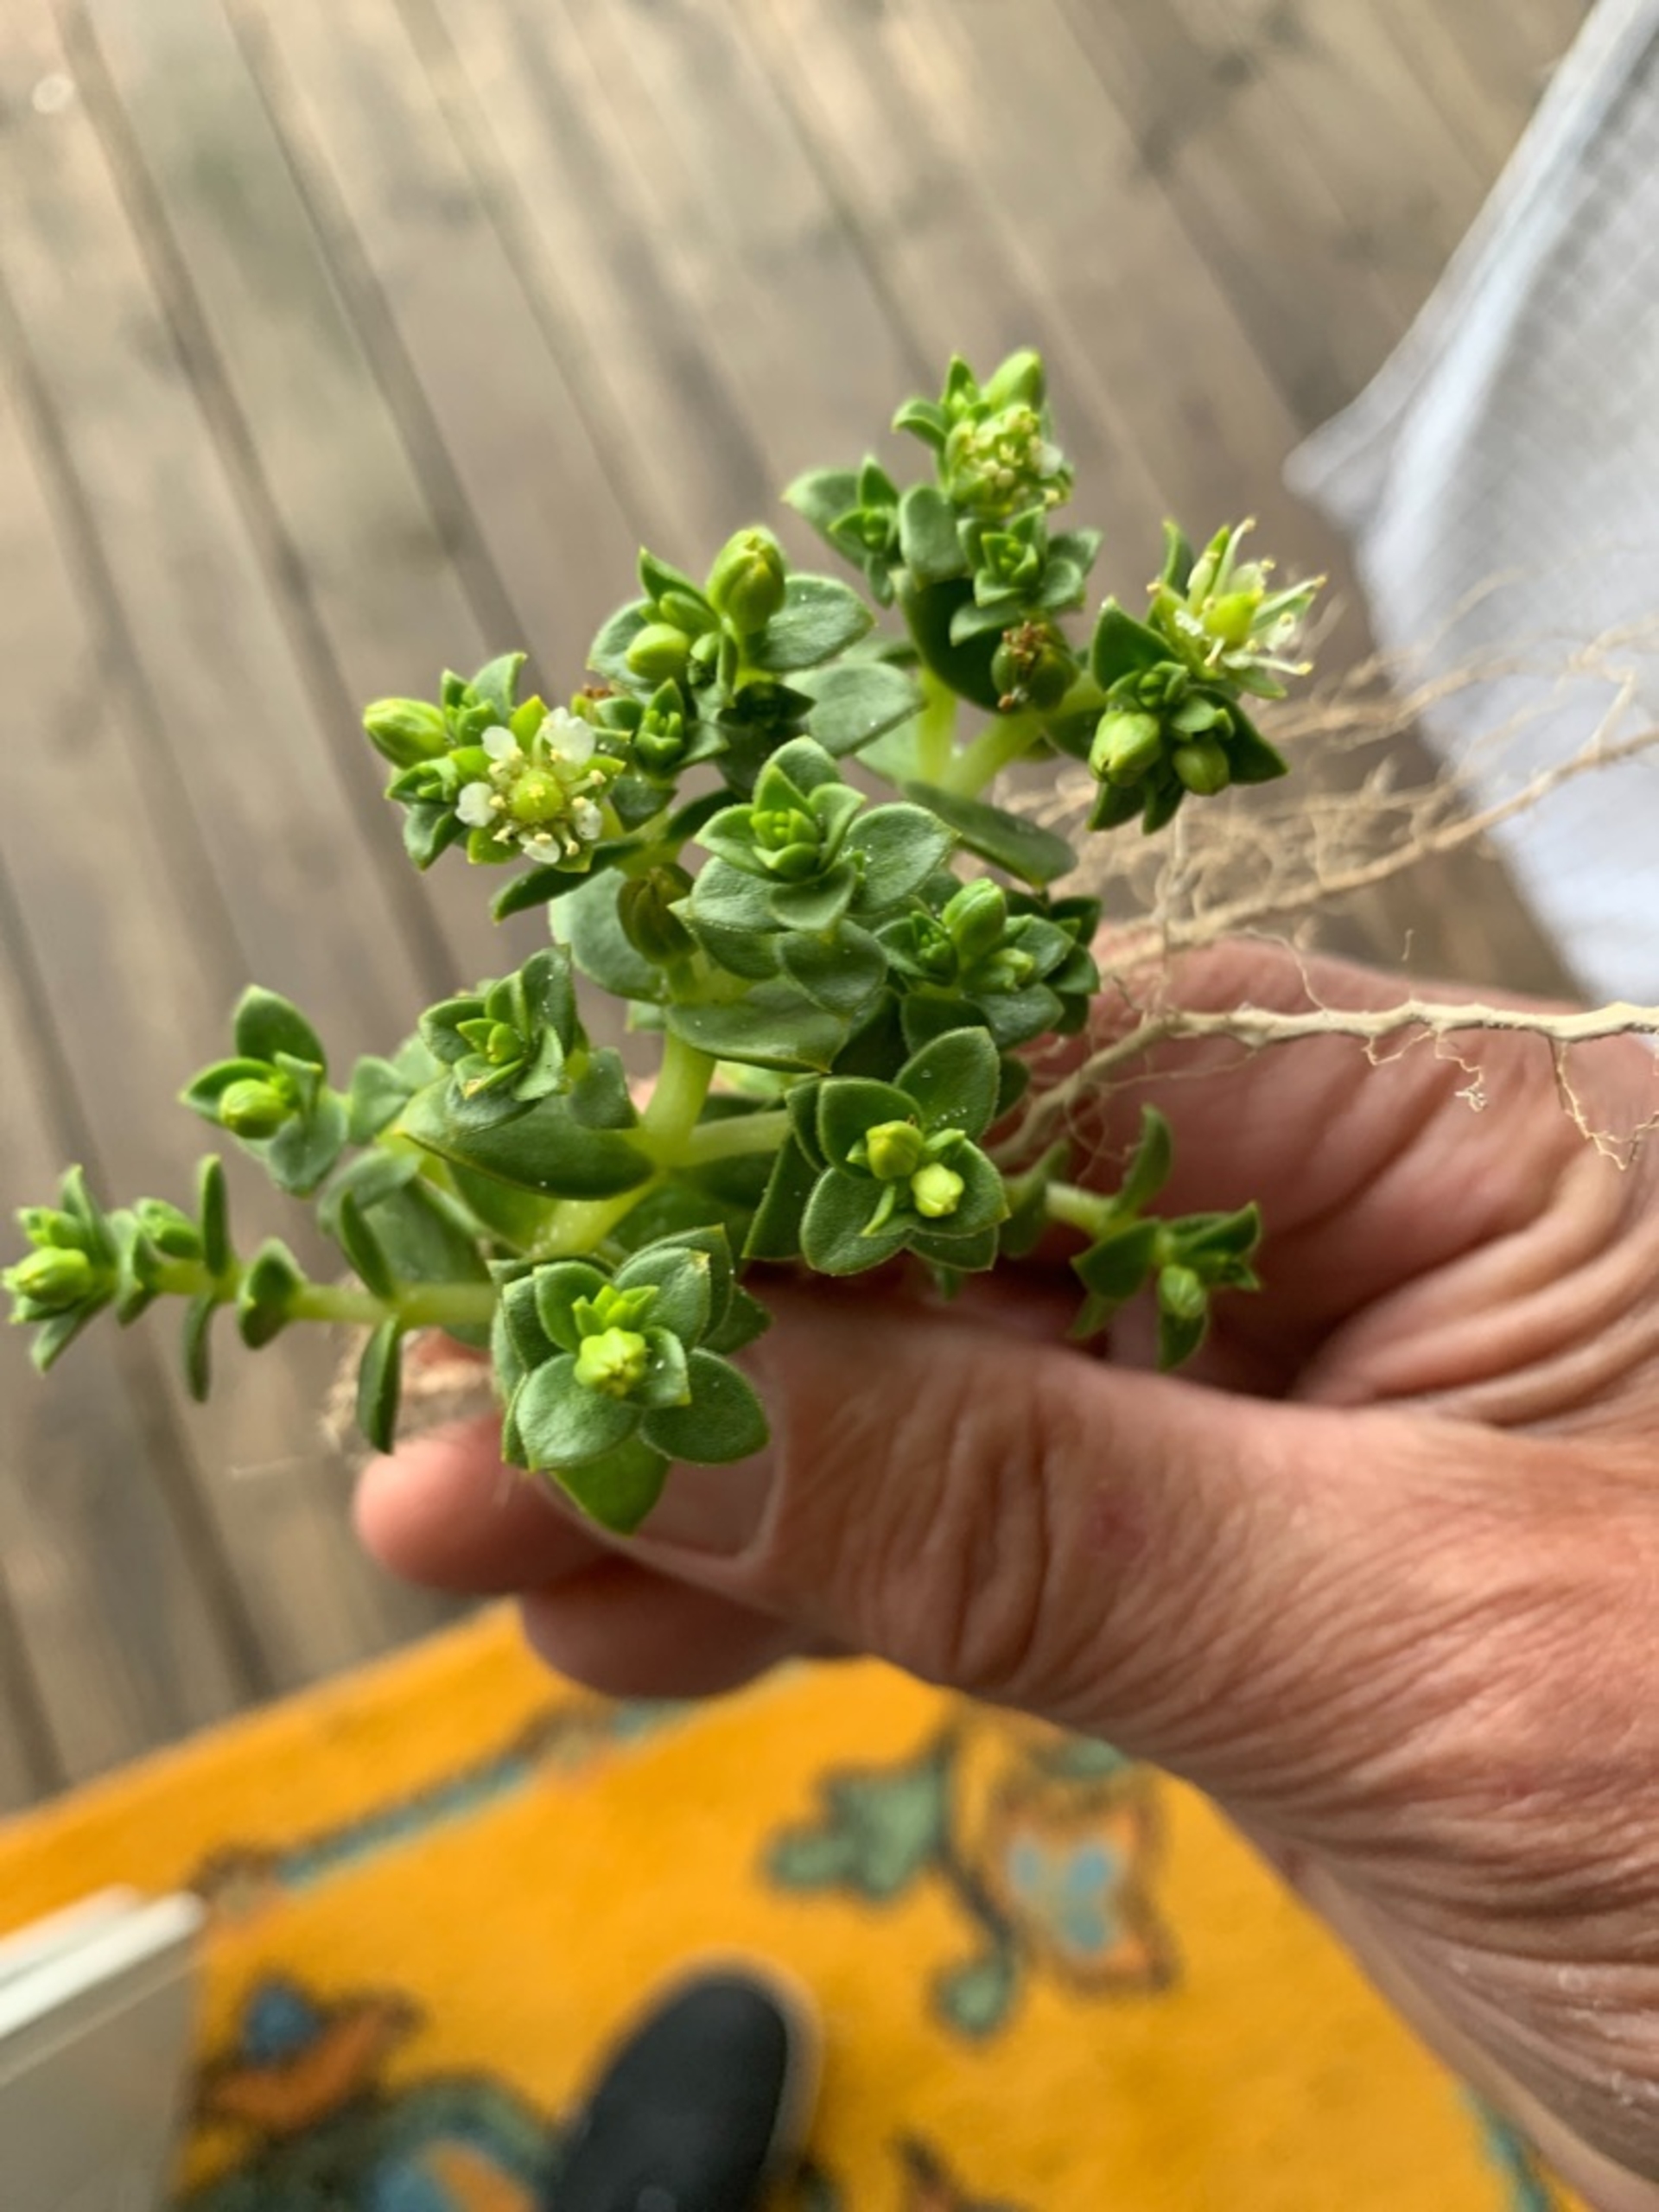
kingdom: Plantae
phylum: Tracheophyta
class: Magnoliopsida
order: Caryophyllales
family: Caryophyllaceae
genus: Honckenya
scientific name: Honckenya peploides
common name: Strandarve
